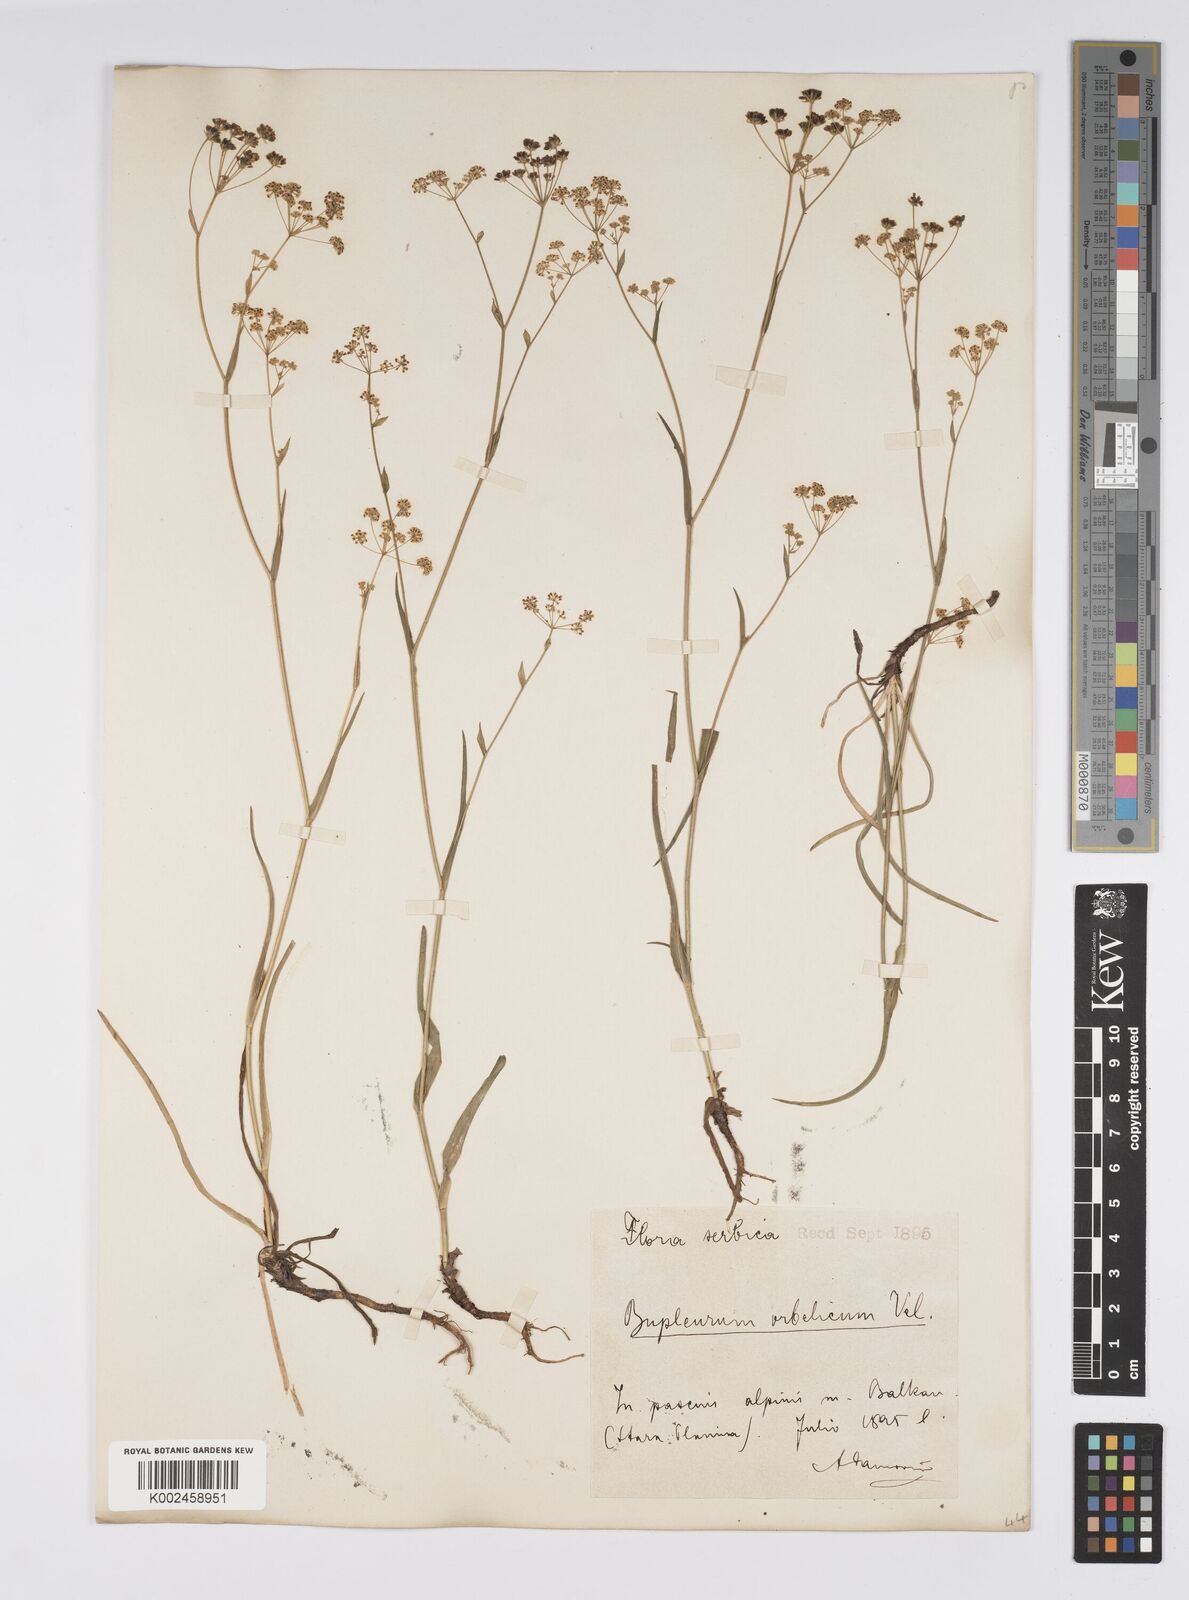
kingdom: Plantae
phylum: Tracheophyta
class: Magnoliopsida
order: Apiales
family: Apiaceae
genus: Bupleurum
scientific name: Bupleurum falcatum
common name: Sickle-leaved hare's-ear
